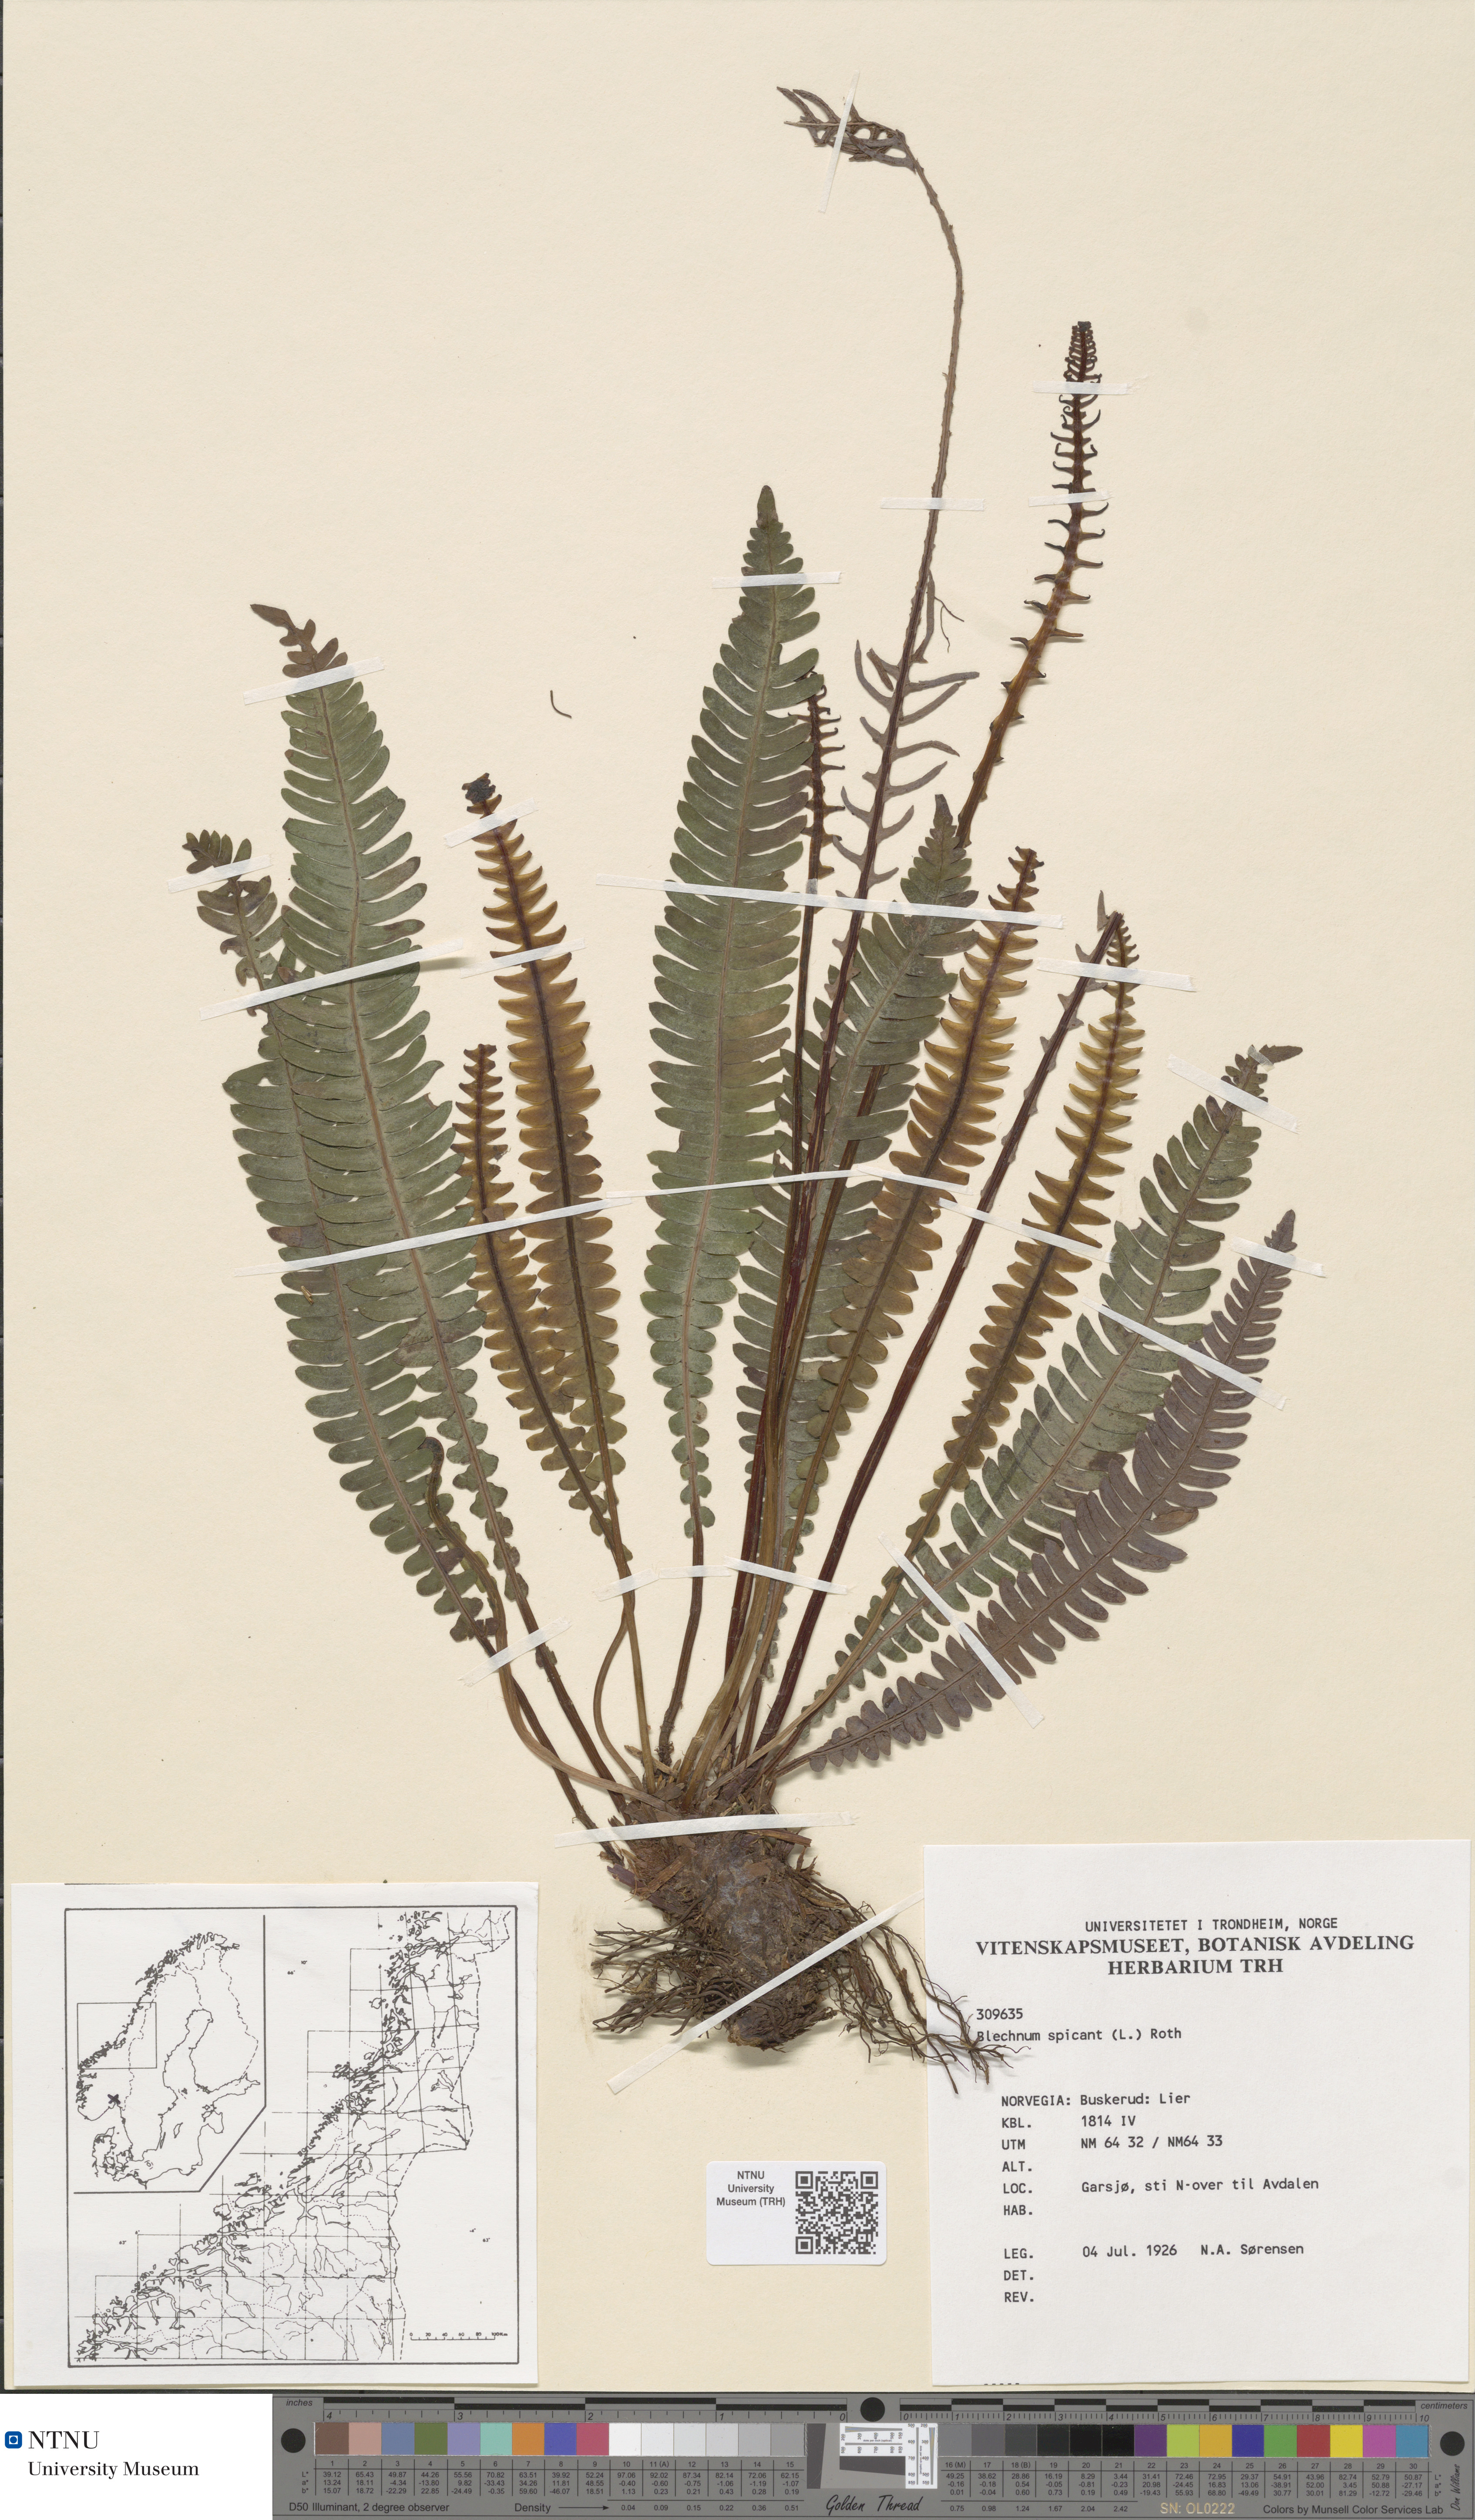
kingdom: Plantae
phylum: Tracheophyta
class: Polypodiopsida
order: Polypodiales
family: Blechnaceae
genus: Struthiopteris
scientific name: Struthiopteris spicant
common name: Deer fern
